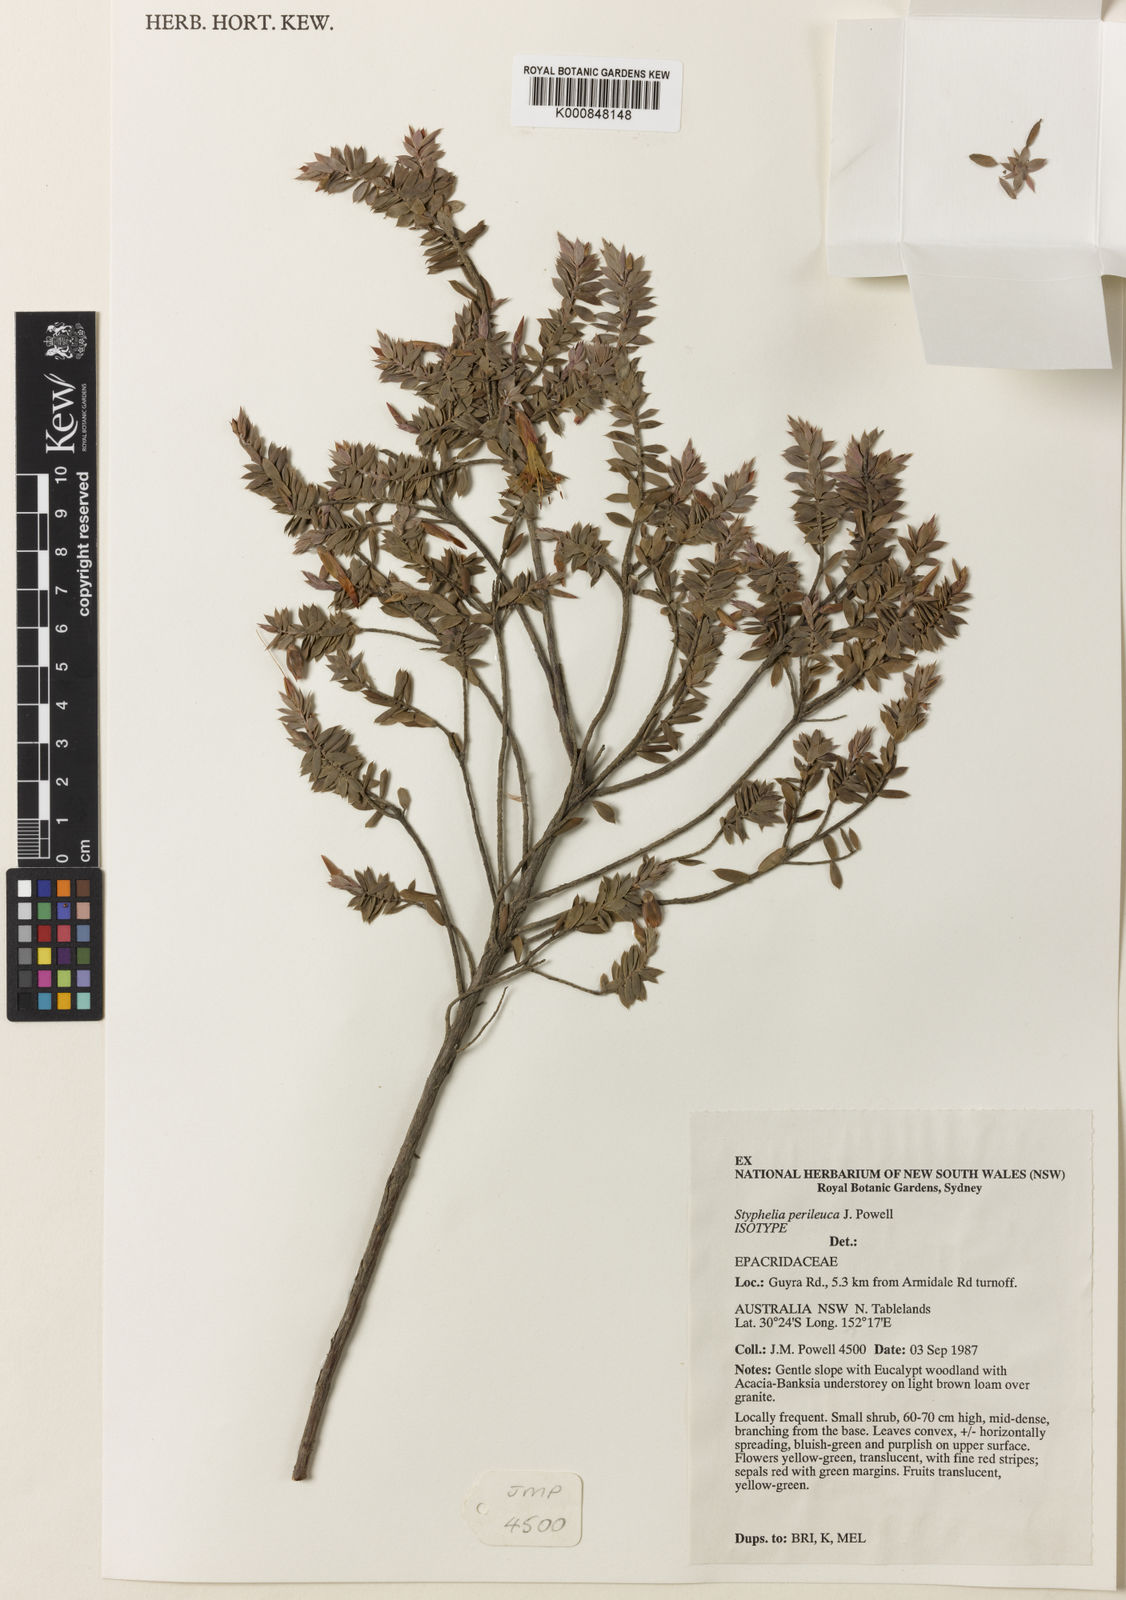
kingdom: Plantae
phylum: Tracheophyta
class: Magnoliopsida
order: Ericales
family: Ericaceae
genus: Styphelia
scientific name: Styphelia perileuca
